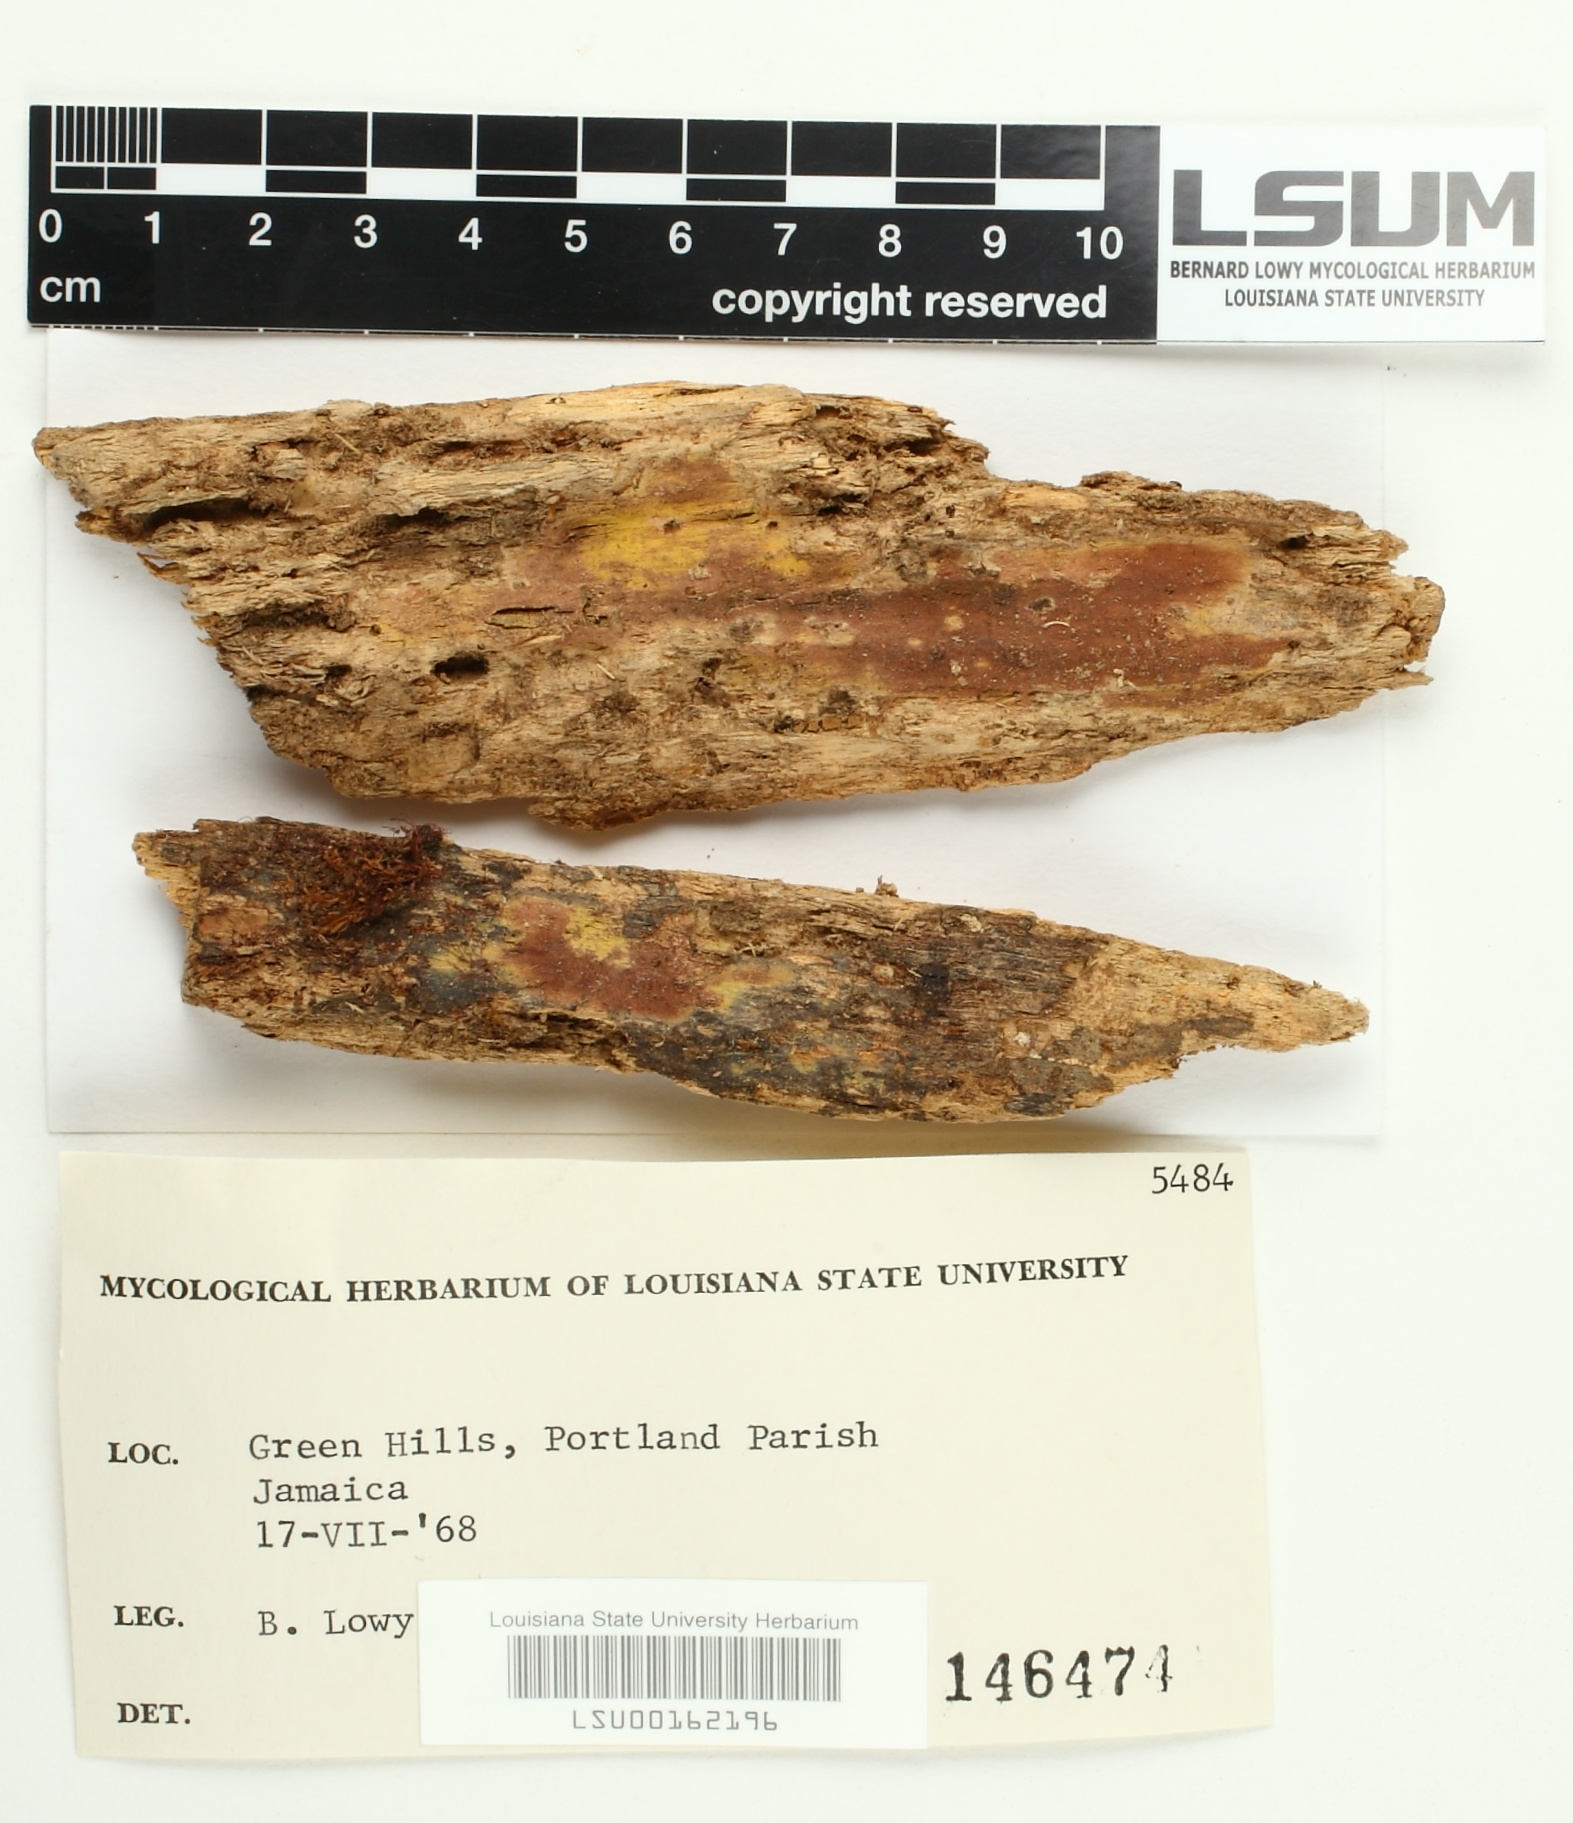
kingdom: Fungi
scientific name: Fungi
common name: Fungi
